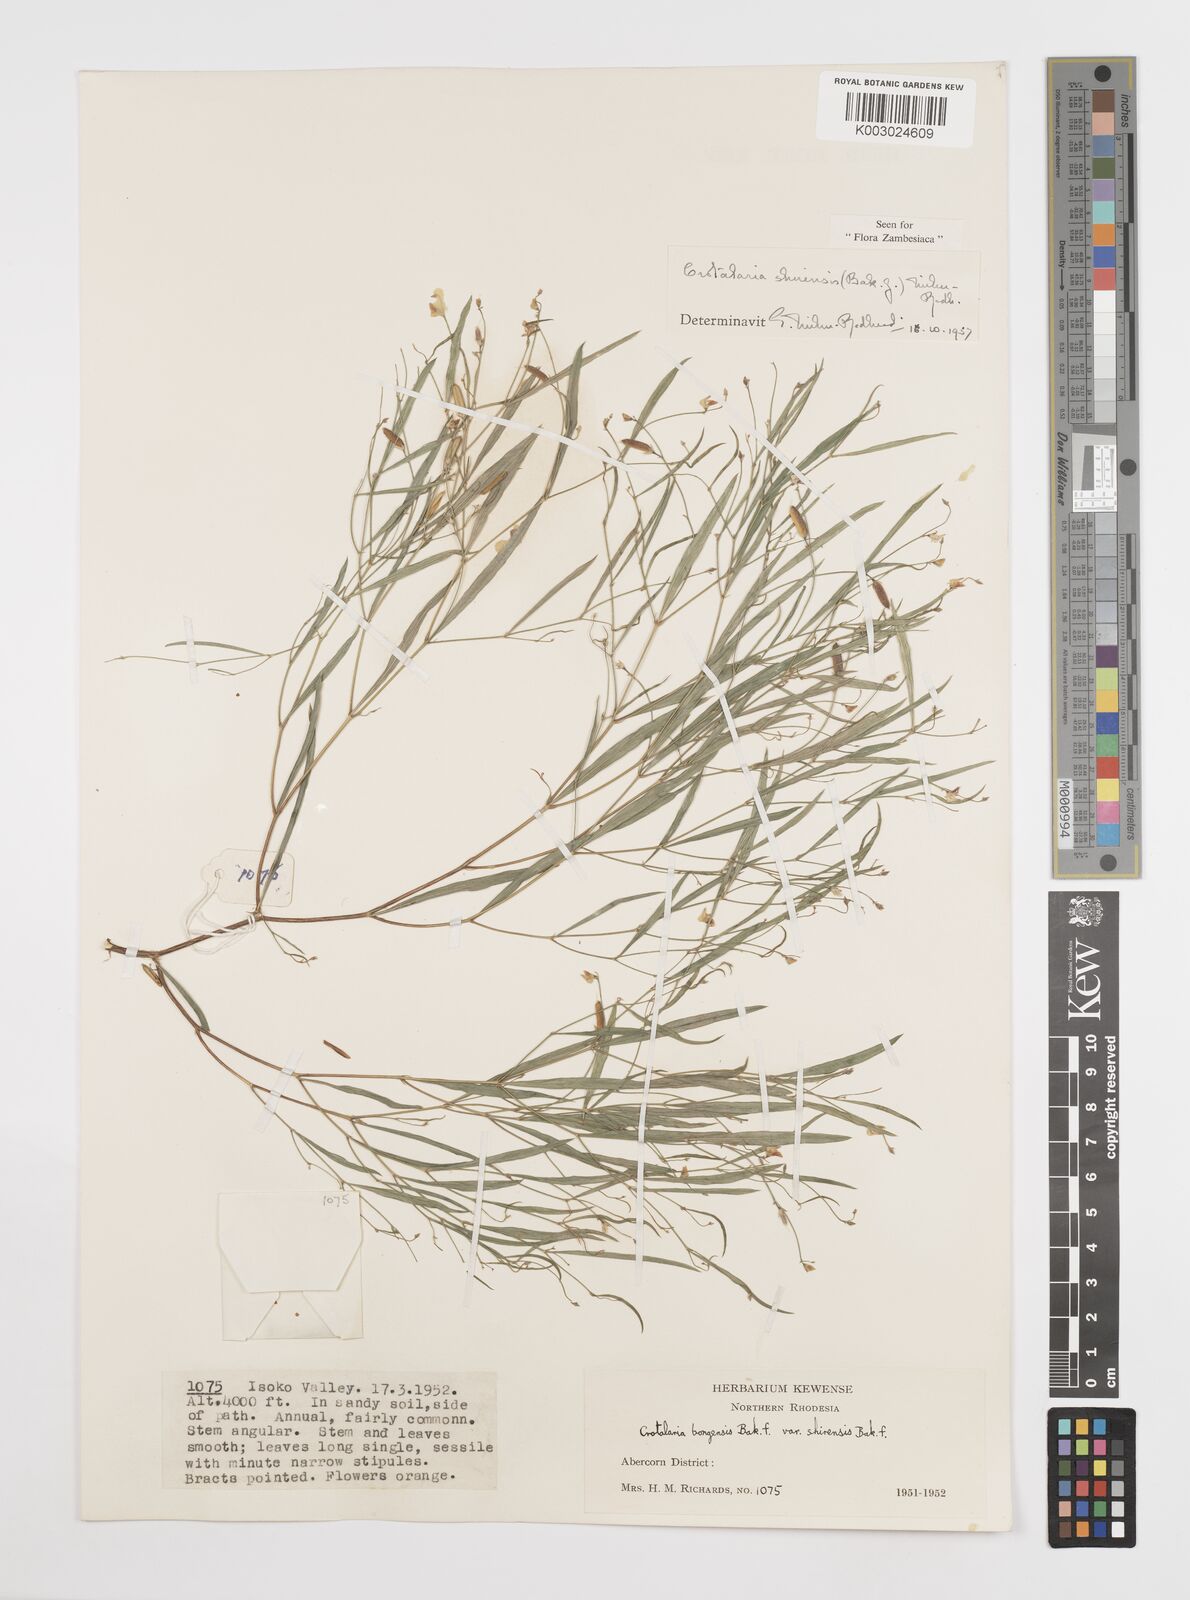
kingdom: Plantae
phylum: Tracheophyta
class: Magnoliopsida
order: Fabales
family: Fabaceae
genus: Crotalaria
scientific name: Crotalaria shirensis
